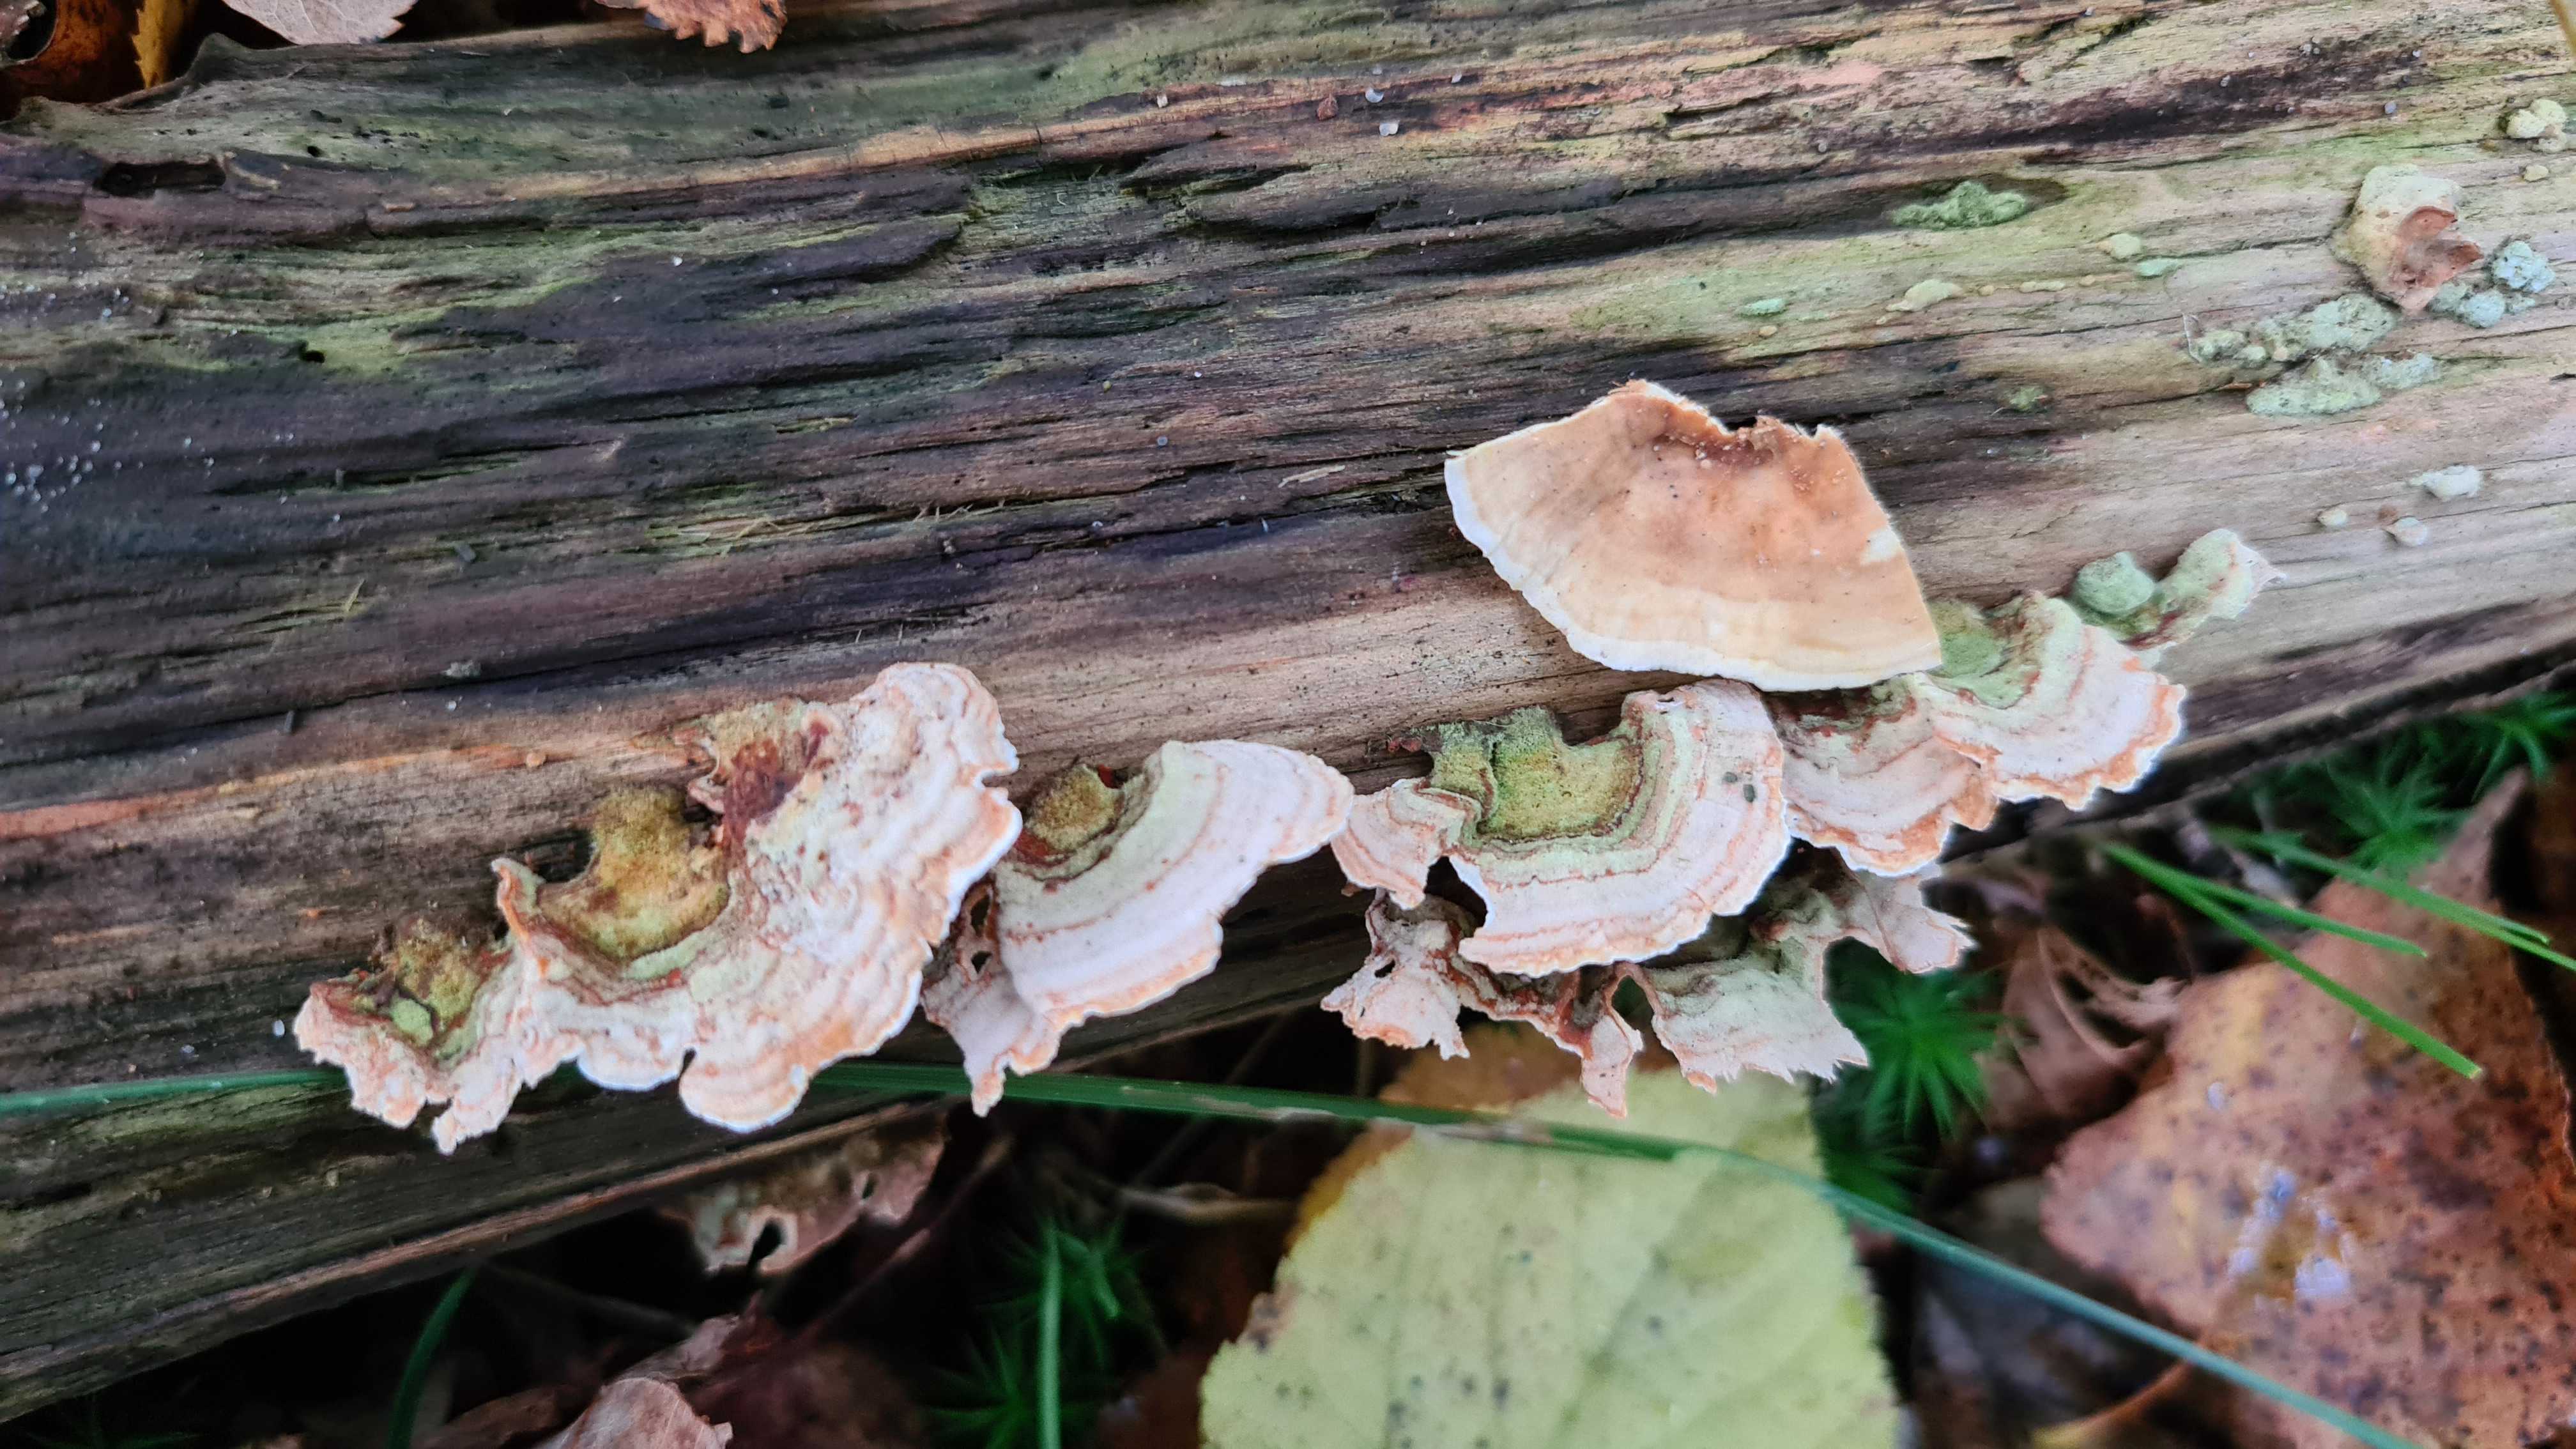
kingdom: Fungi
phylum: Basidiomycota
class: Agaricomycetes
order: Russulales
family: Stereaceae
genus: Stereum
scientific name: Stereum subtomentosum
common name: smuk lædersvamp
